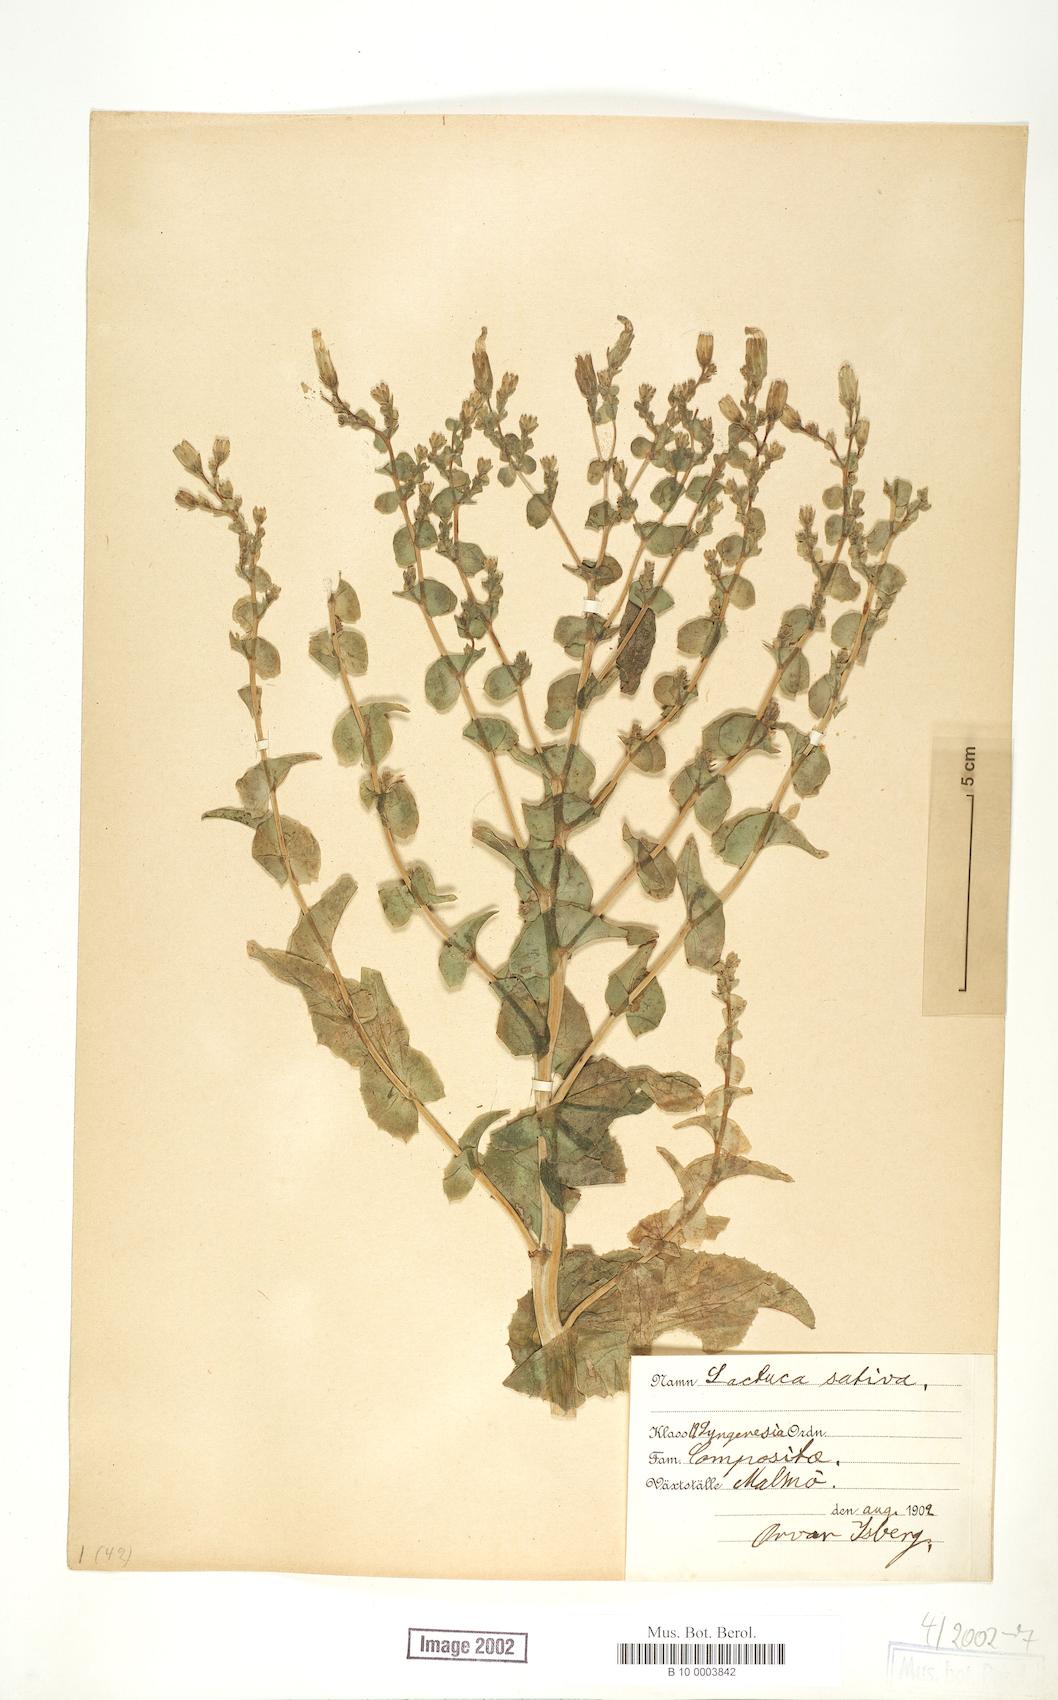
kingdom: Plantae
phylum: Tracheophyta
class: Magnoliopsida
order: Asterales
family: Asteraceae
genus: Lactuca
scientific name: Lactuca sativa
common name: Garden lettuce
